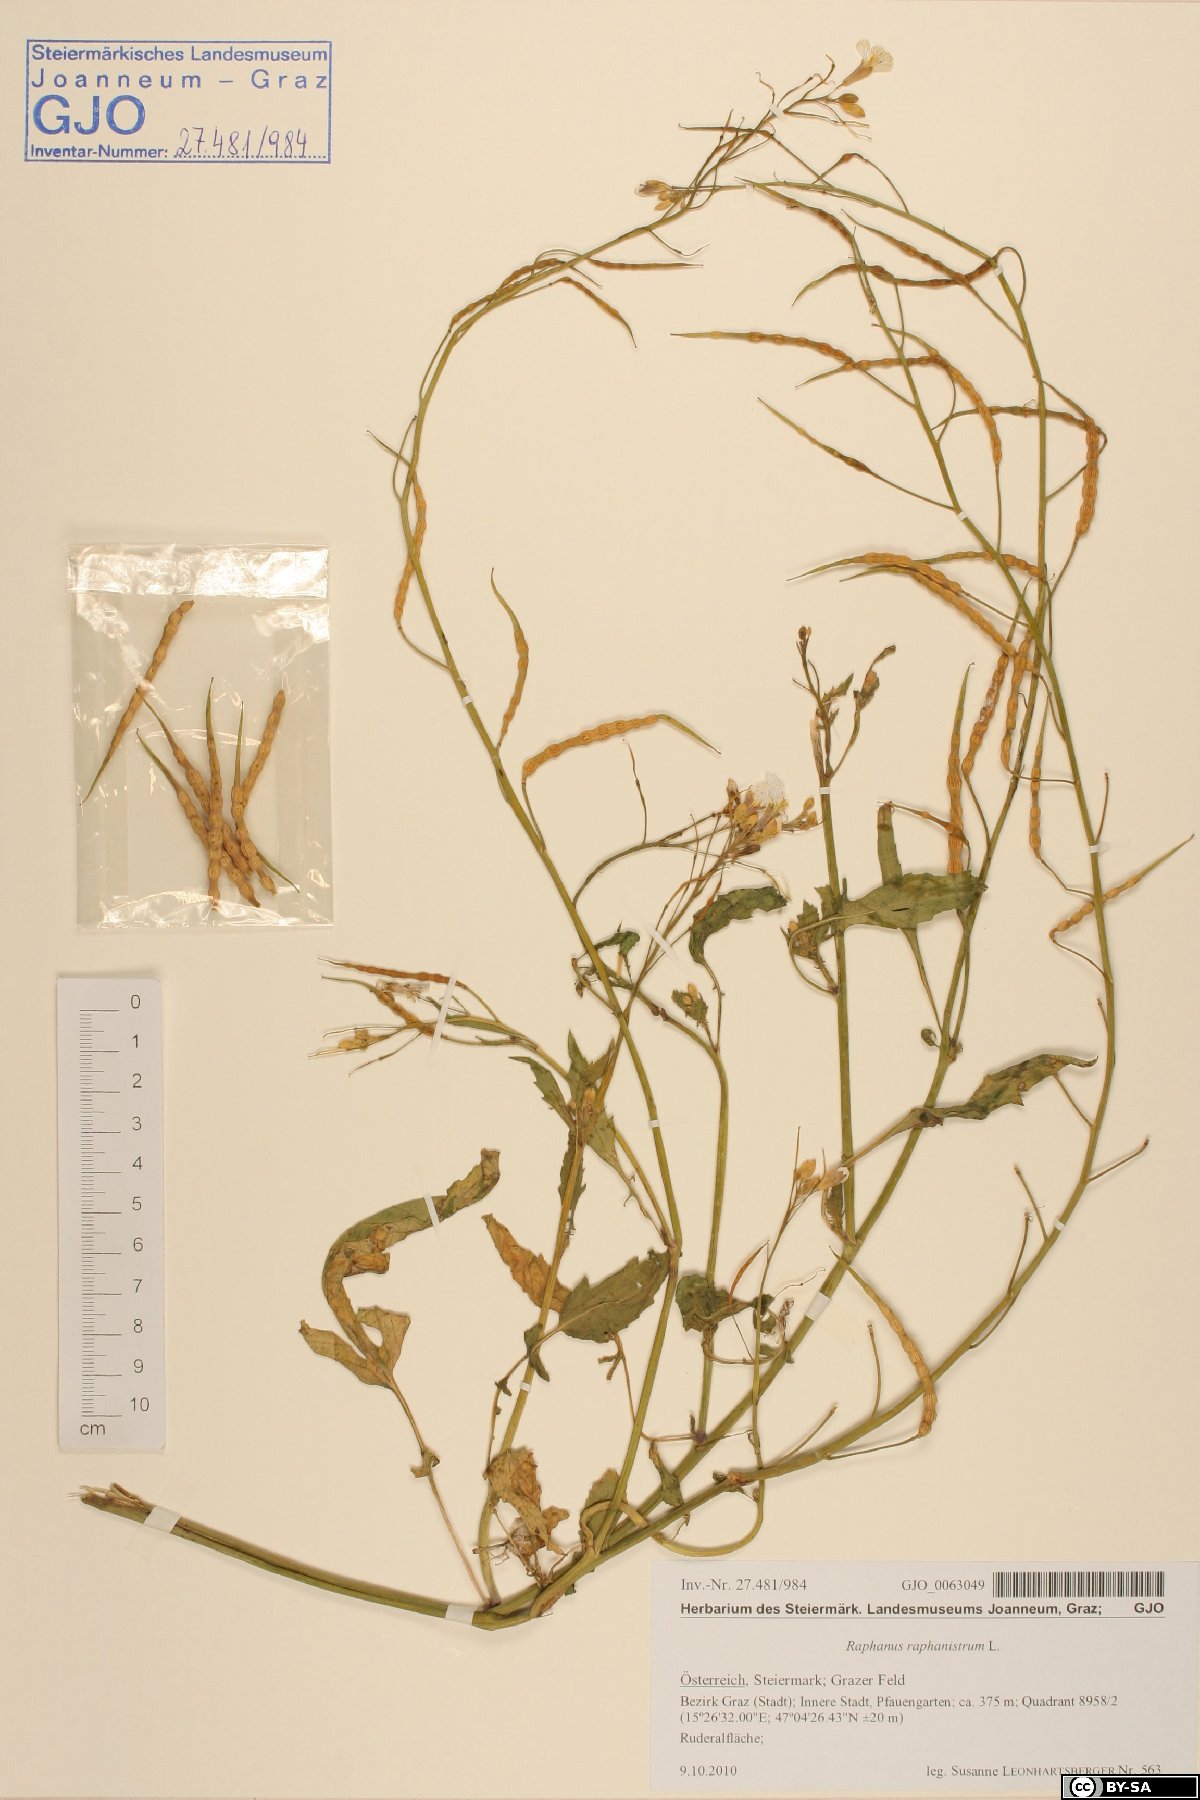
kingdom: Plantae
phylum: Tracheophyta
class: Magnoliopsida
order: Brassicales
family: Brassicaceae
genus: Raphanus
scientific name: Raphanus raphanistrum
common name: Wild radish
